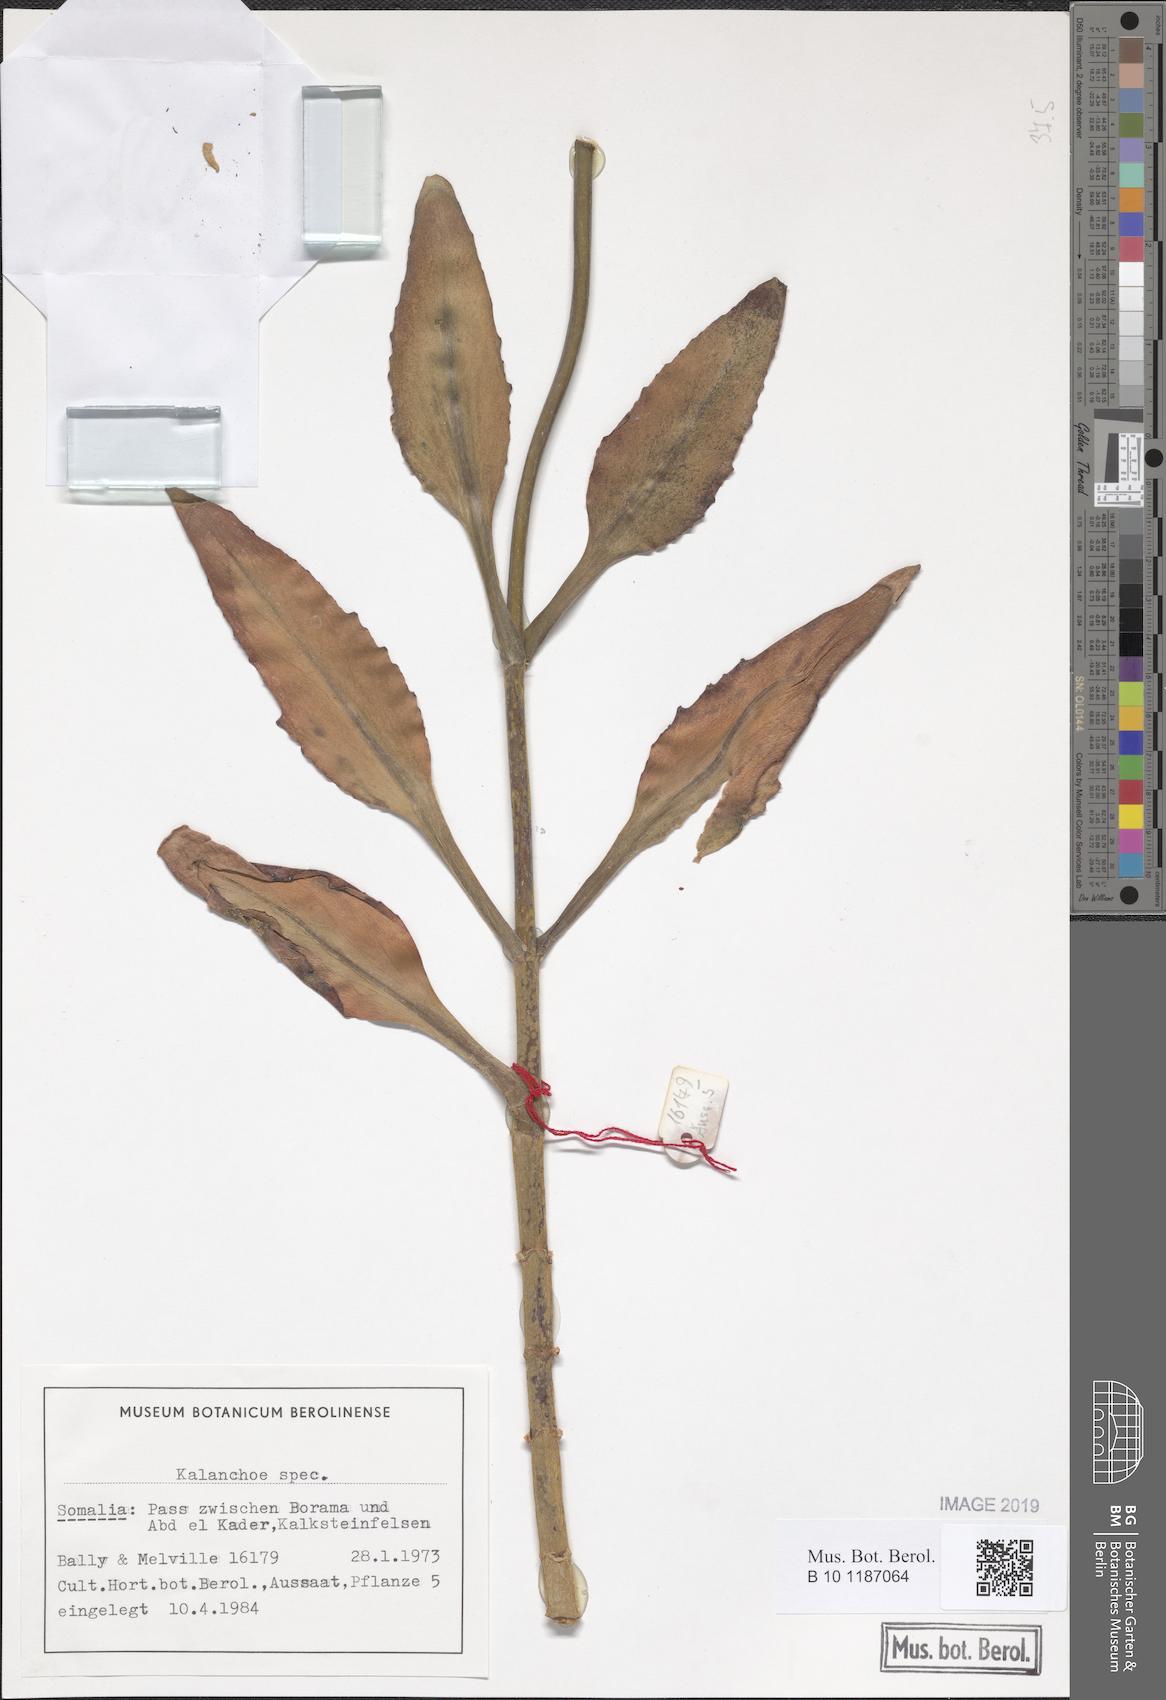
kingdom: Plantae
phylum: Tracheophyta
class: Magnoliopsida
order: Saxifragales
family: Crassulaceae
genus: Kalanchoe
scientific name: Kalanchoe
